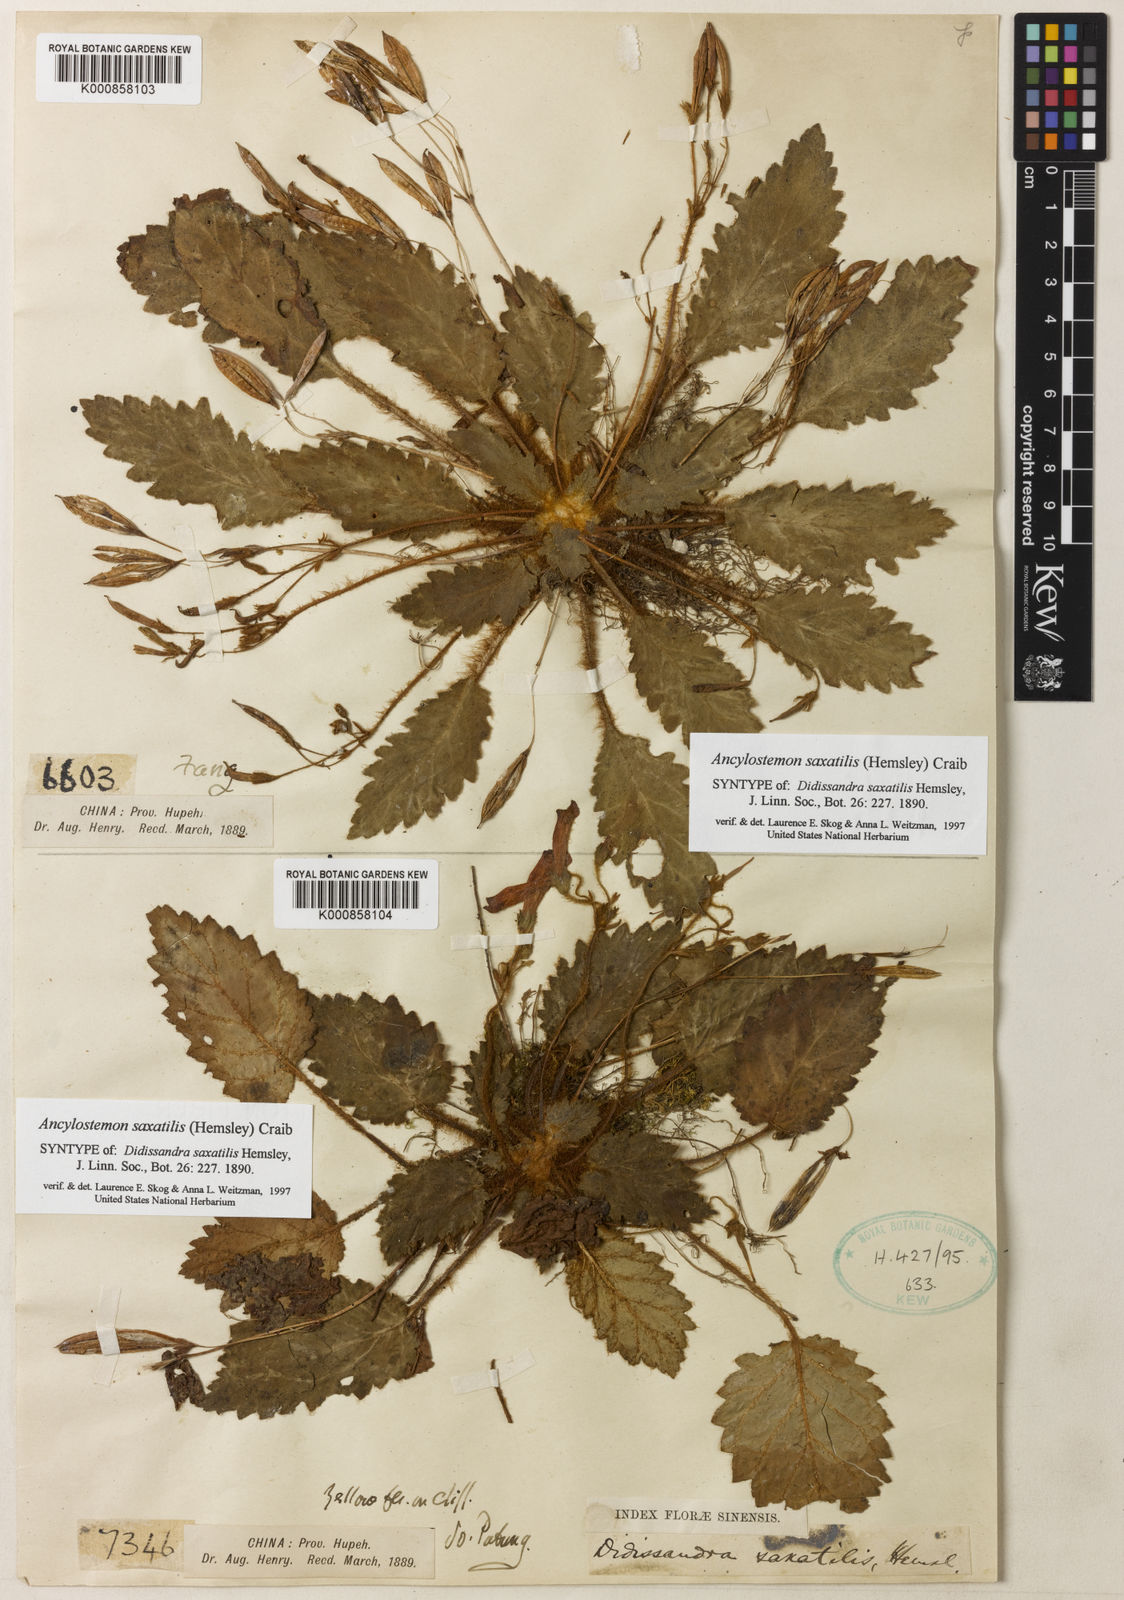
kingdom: Plantae
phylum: Tracheophyta
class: Magnoliopsida
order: Lamiales
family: Gesneriaceae
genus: Oreocharis
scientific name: Oreocharis
